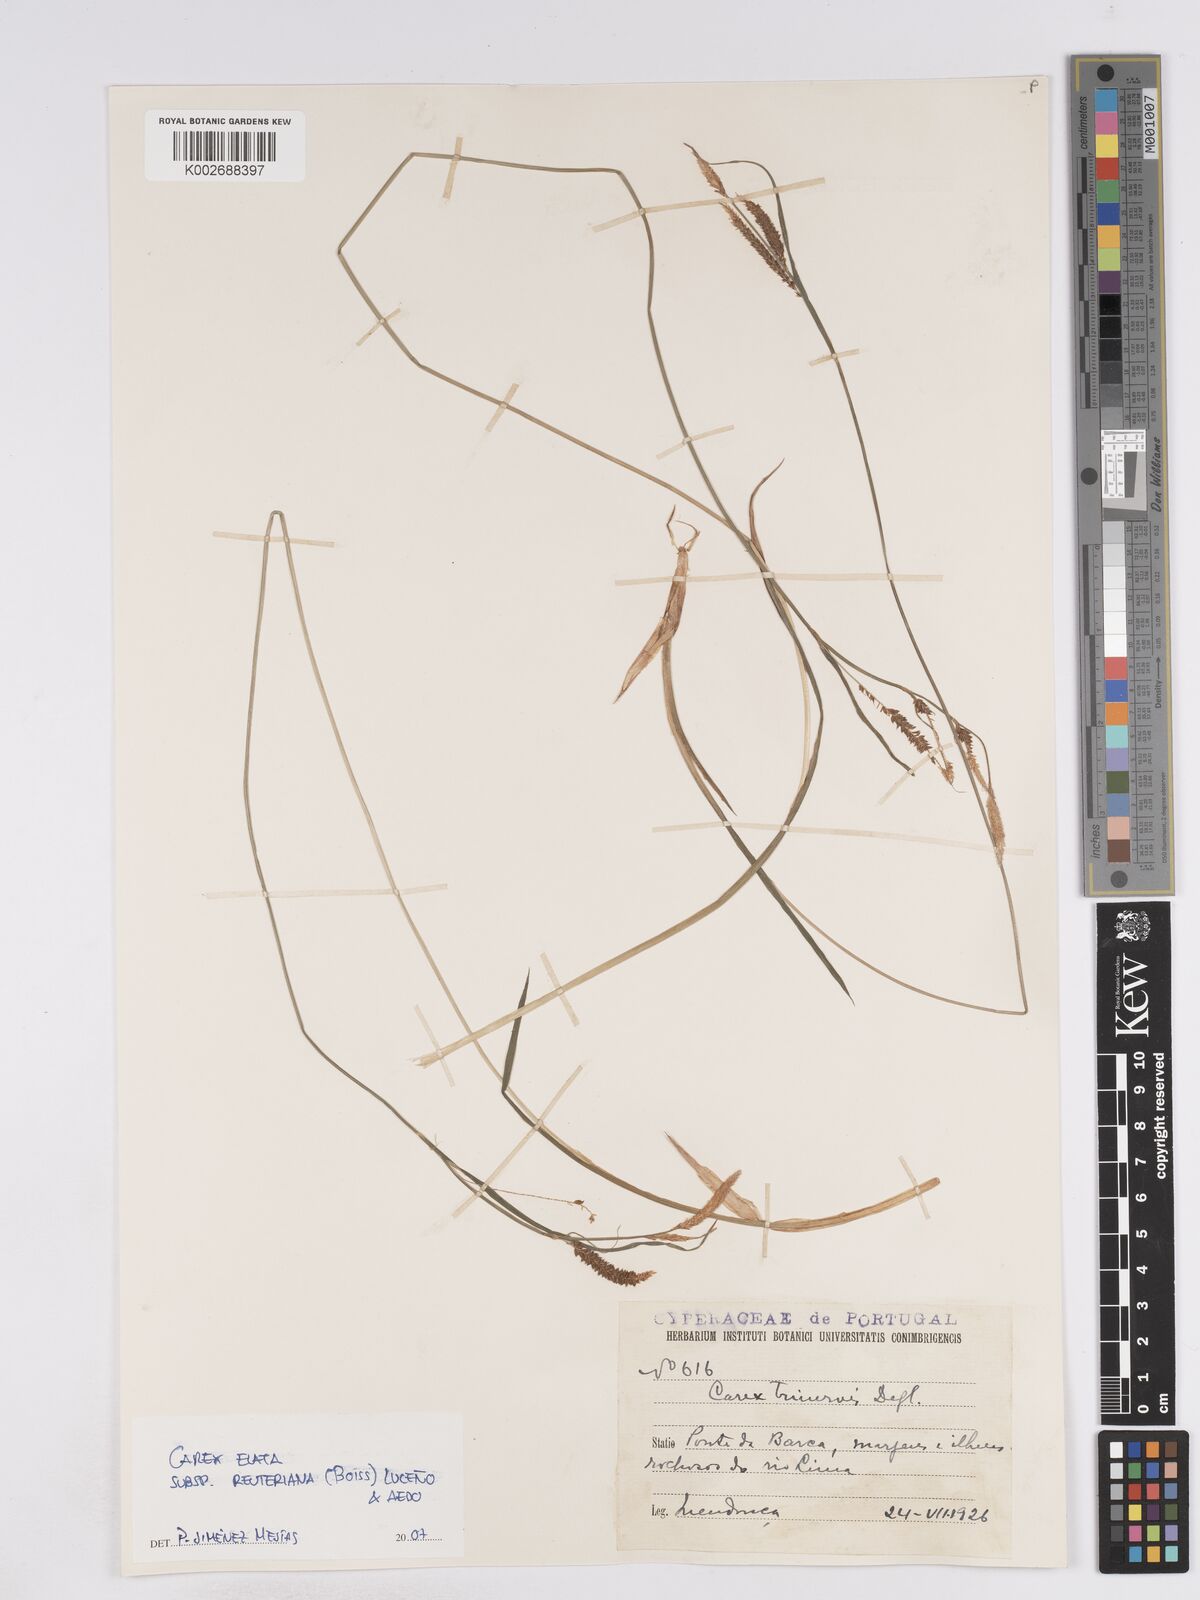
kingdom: Plantae
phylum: Tracheophyta
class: Liliopsida
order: Poales
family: Cyperaceae
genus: Carex
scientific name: Carex reuteriana
